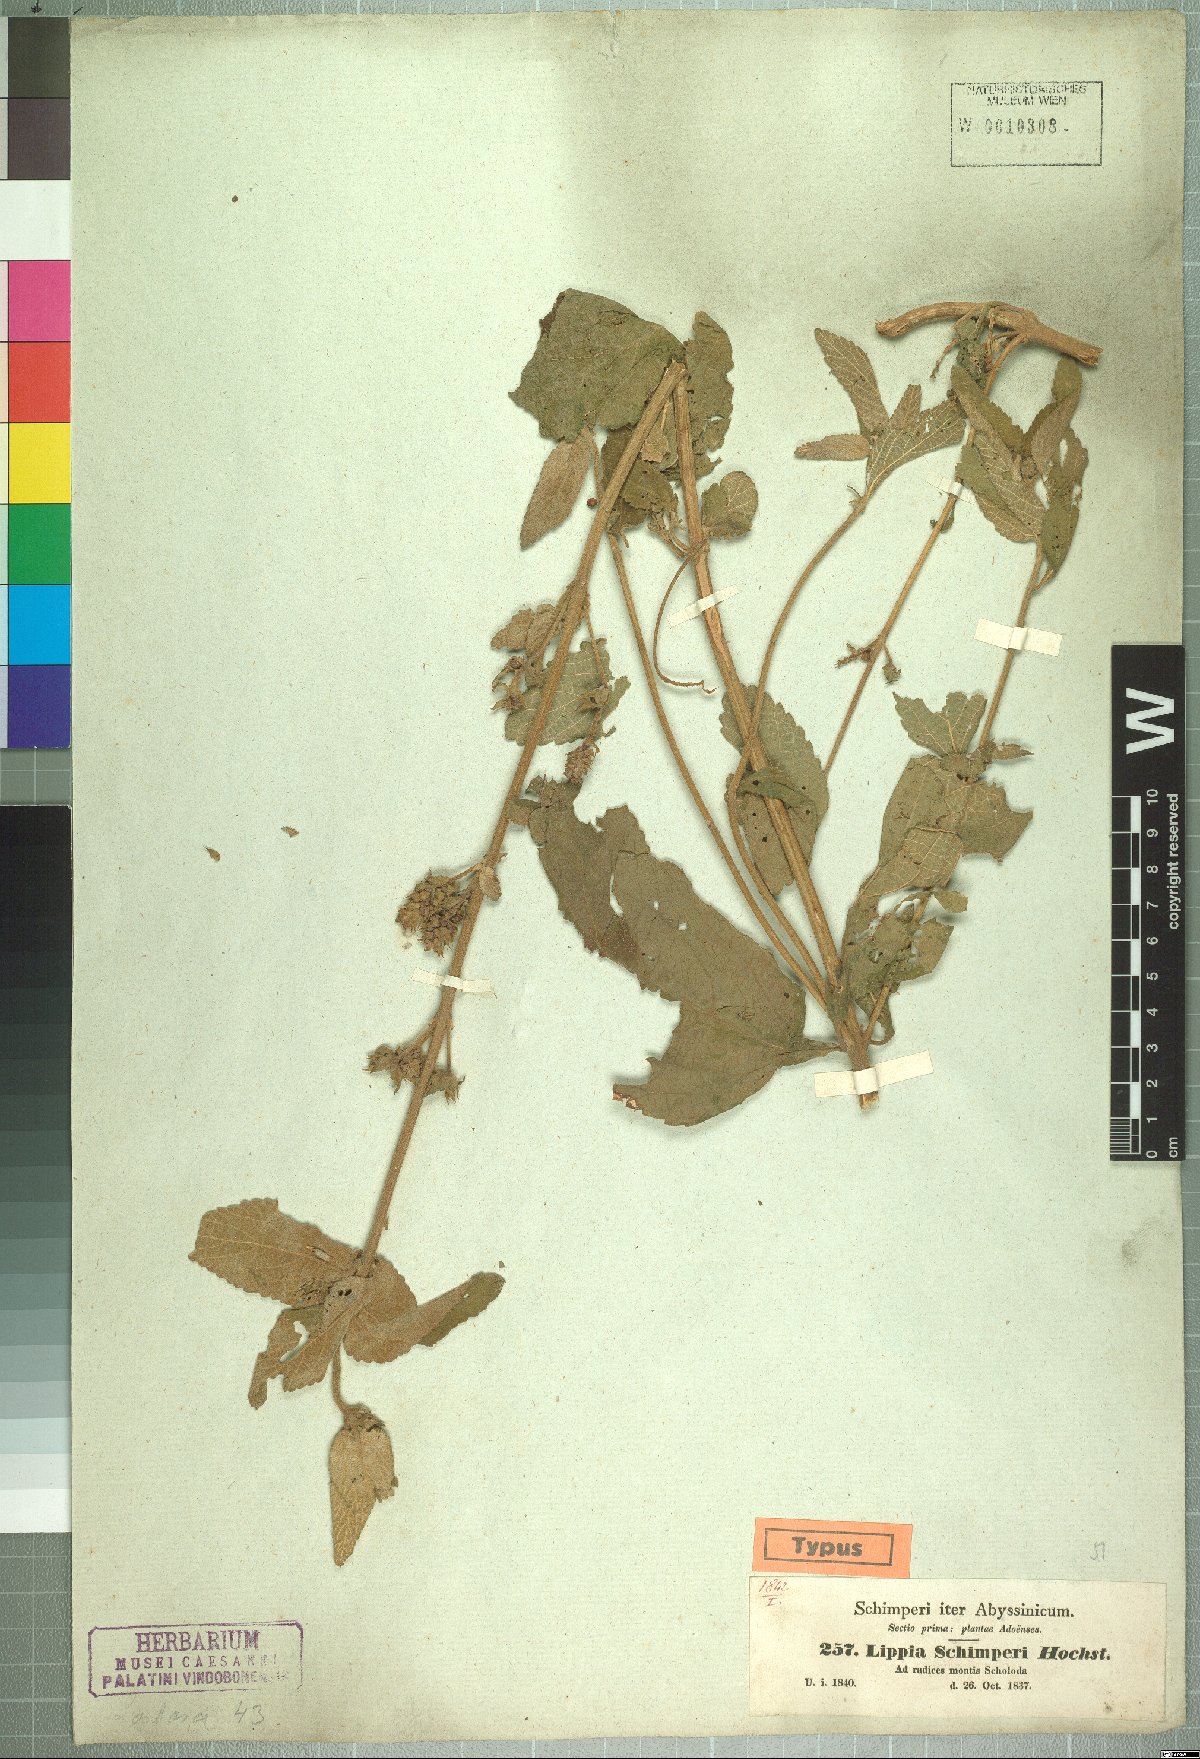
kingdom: Plantae
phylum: Tracheophyta
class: Magnoliopsida
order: Lamiales
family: Verbenaceae
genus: Lantana
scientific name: Lantana ukambensis
